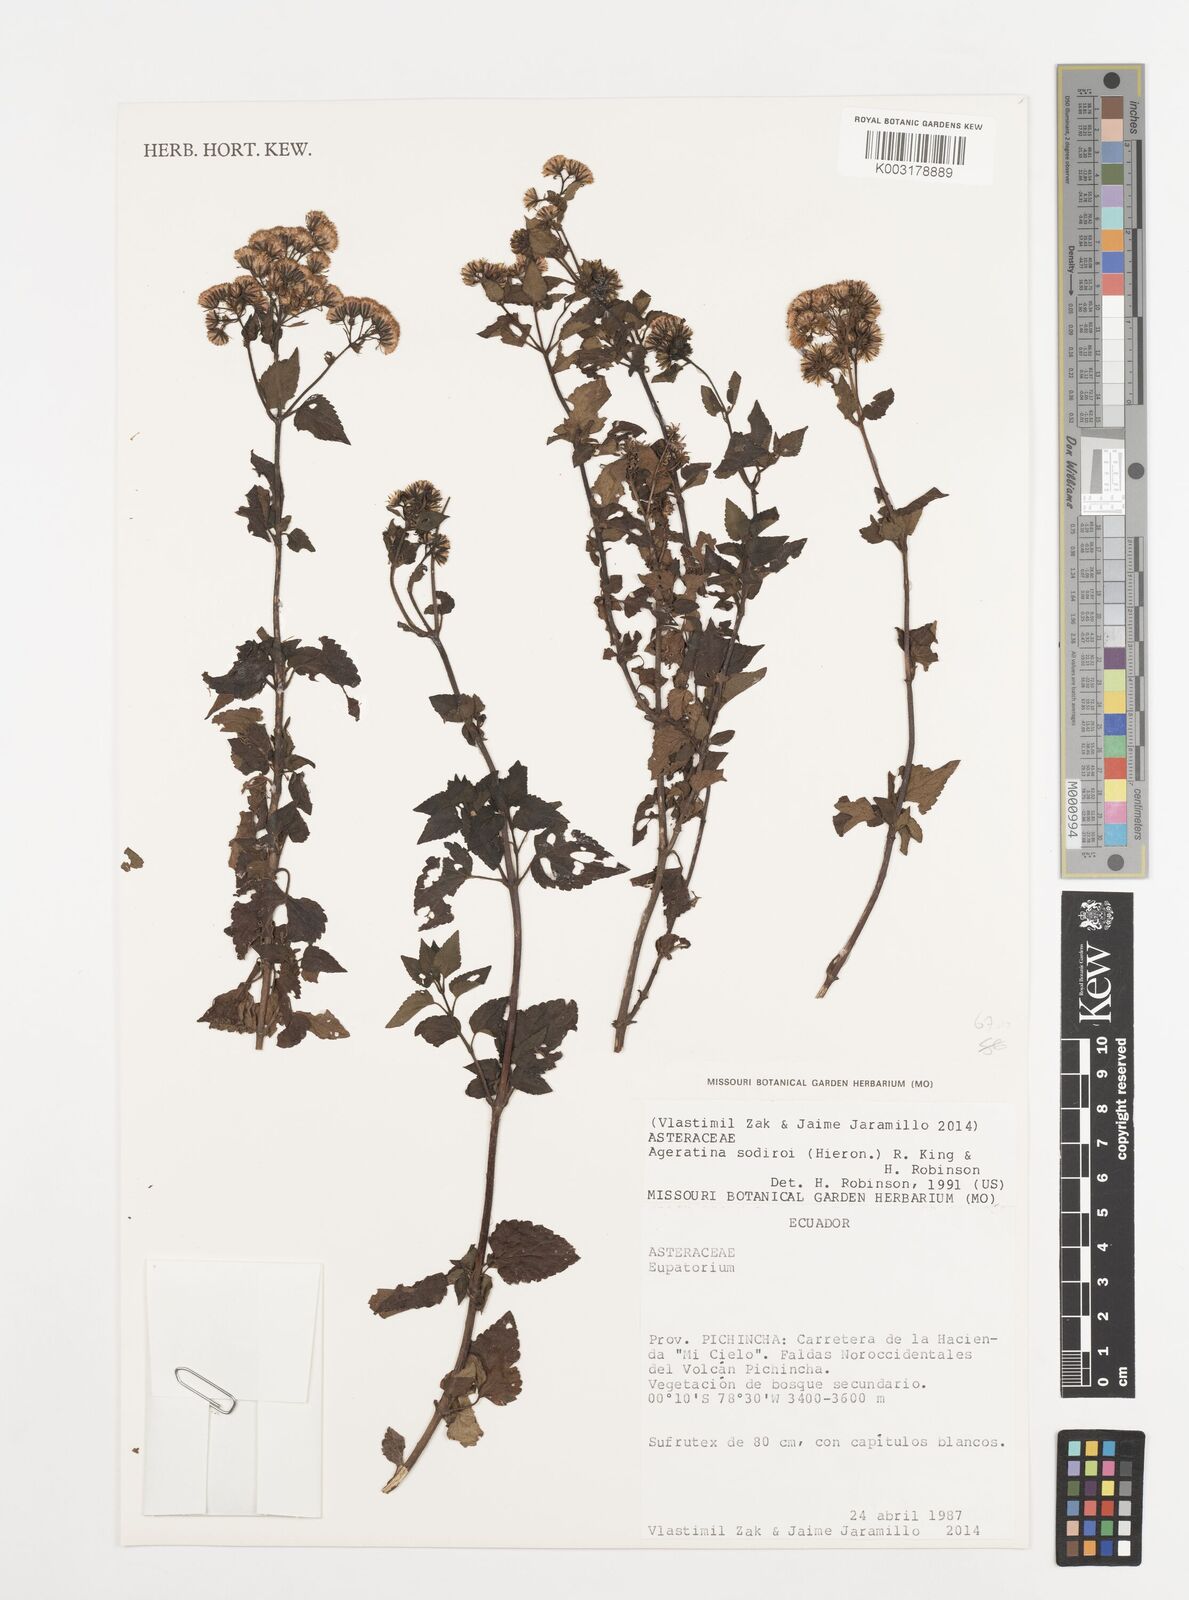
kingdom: Plantae
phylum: Tracheophyta
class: Magnoliopsida
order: Asterales
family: Asteraceae
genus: Ageratina
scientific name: Ageratina sodiroi
